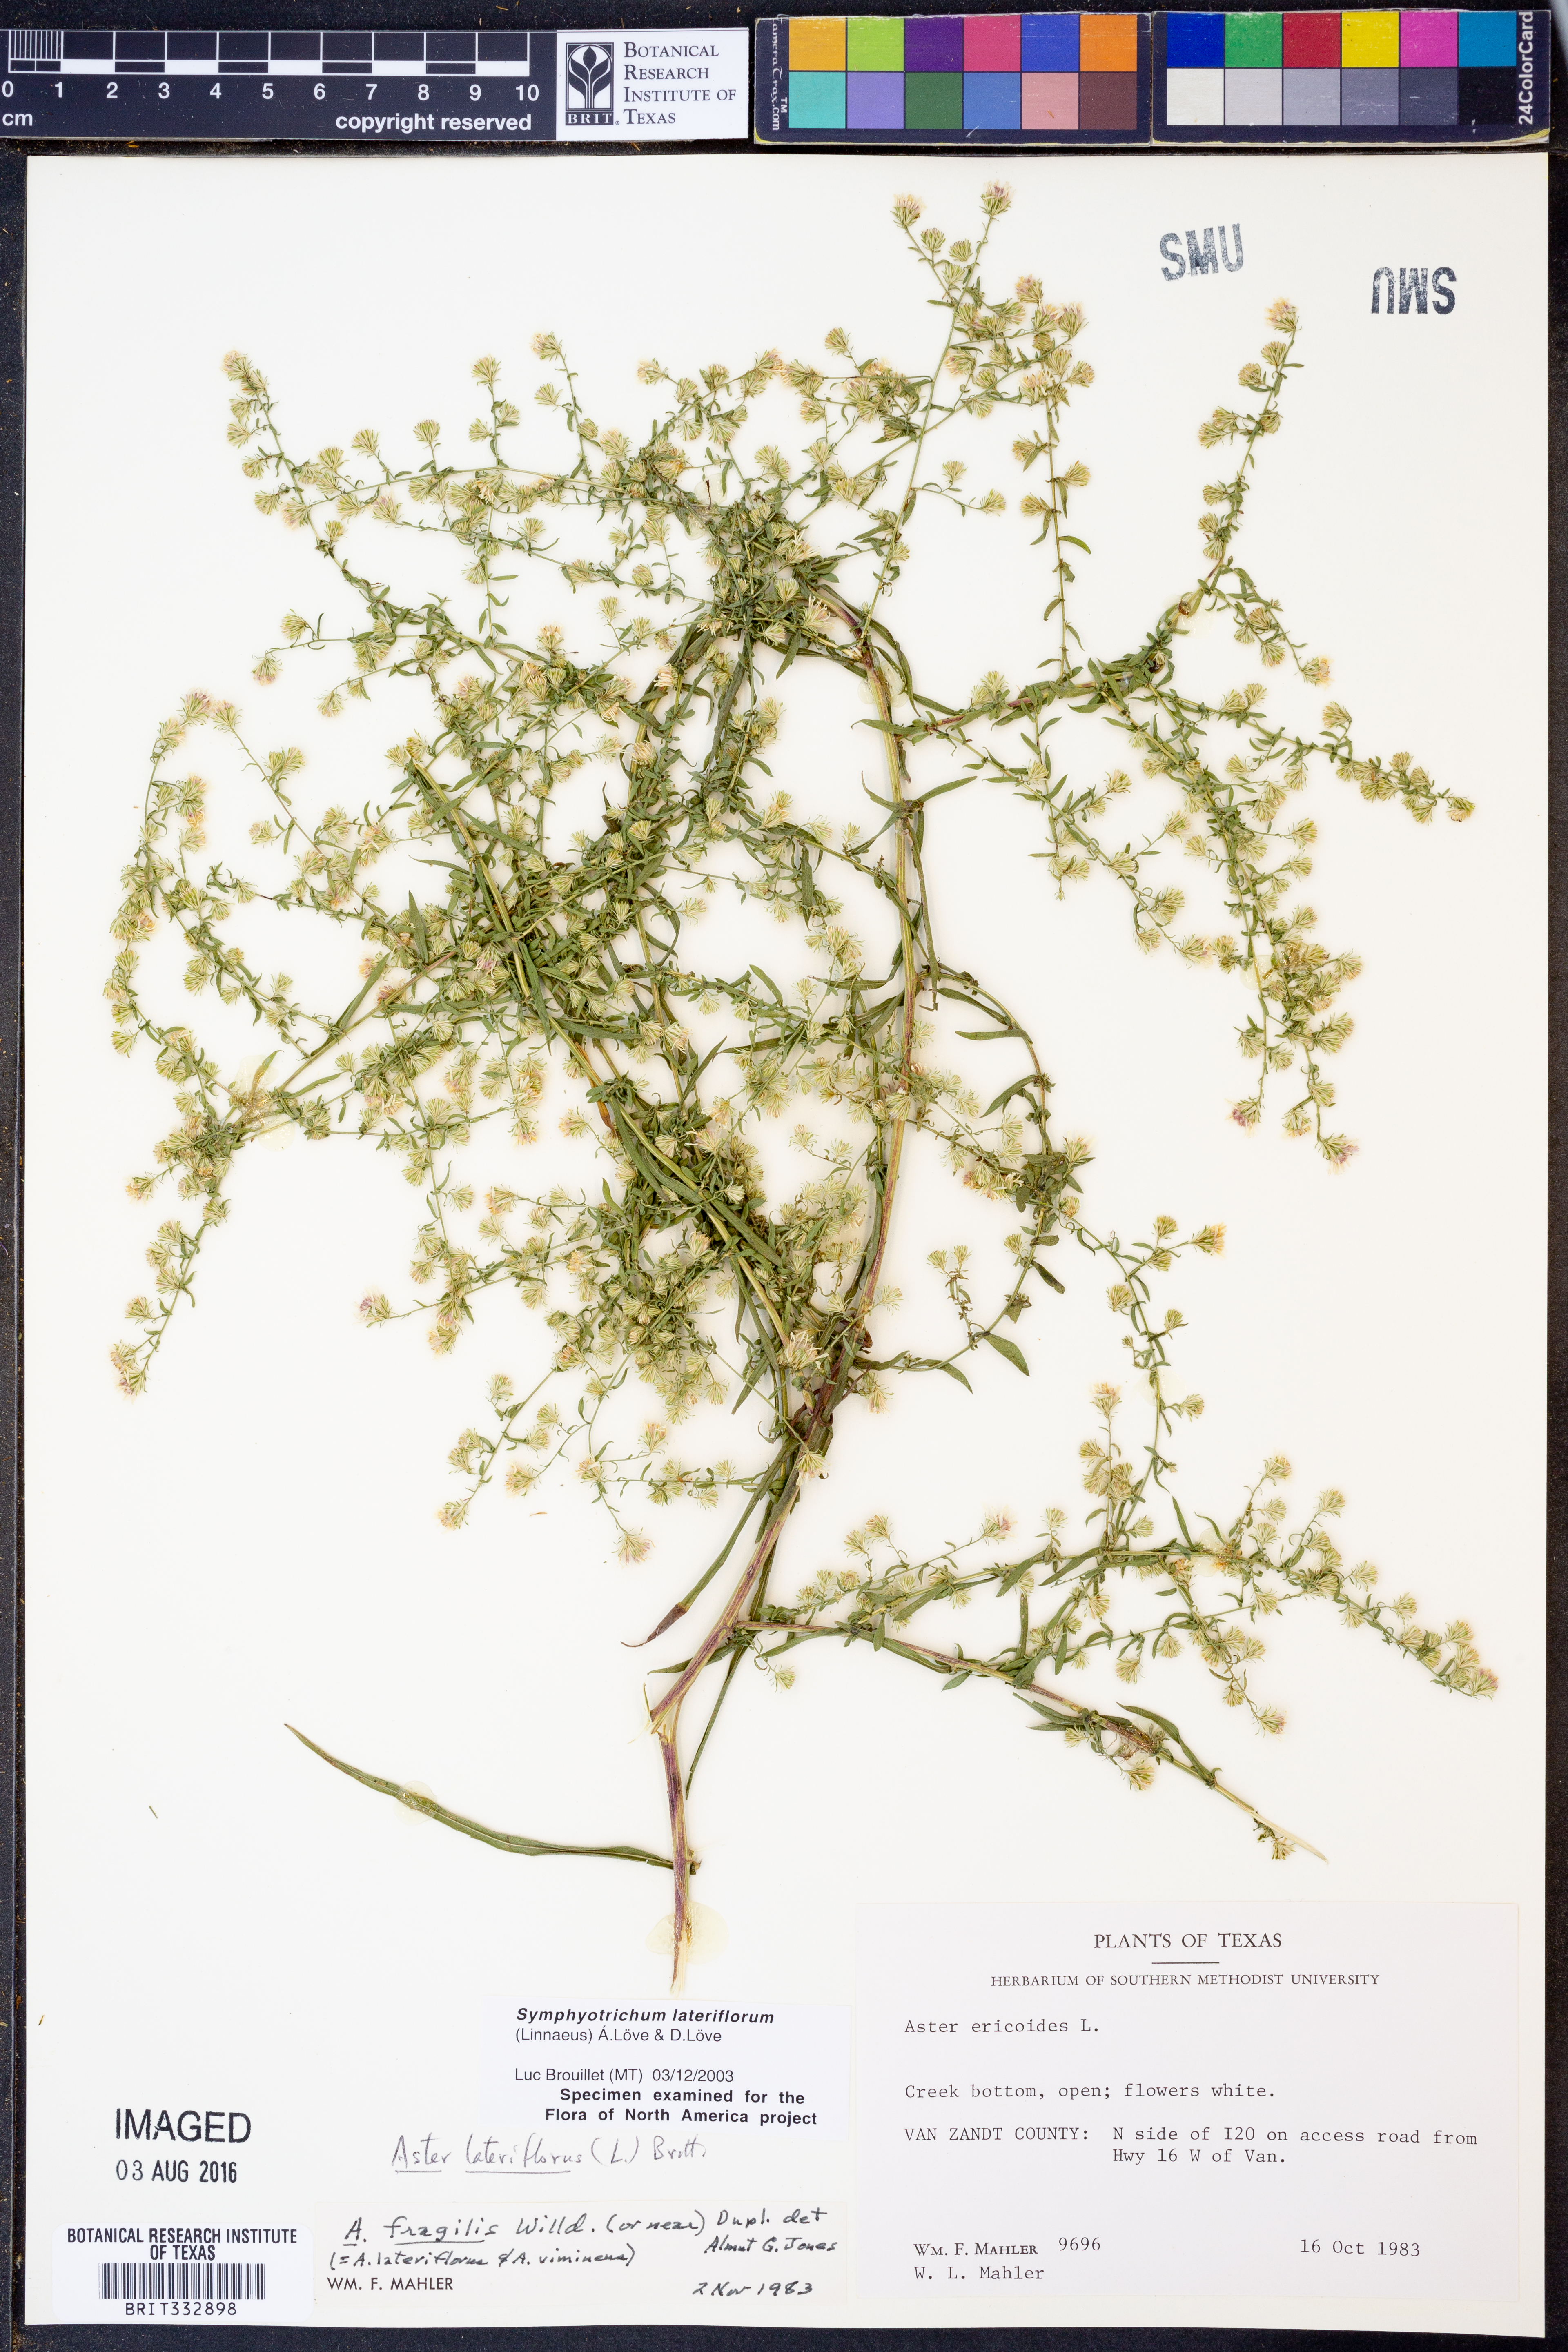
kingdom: Plantae
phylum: Tracheophyta
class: Magnoliopsida
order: Asterales
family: Asteraceae
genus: Symphyotrichum
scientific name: Symphyotrichum lateriflorum
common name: Calico aster
